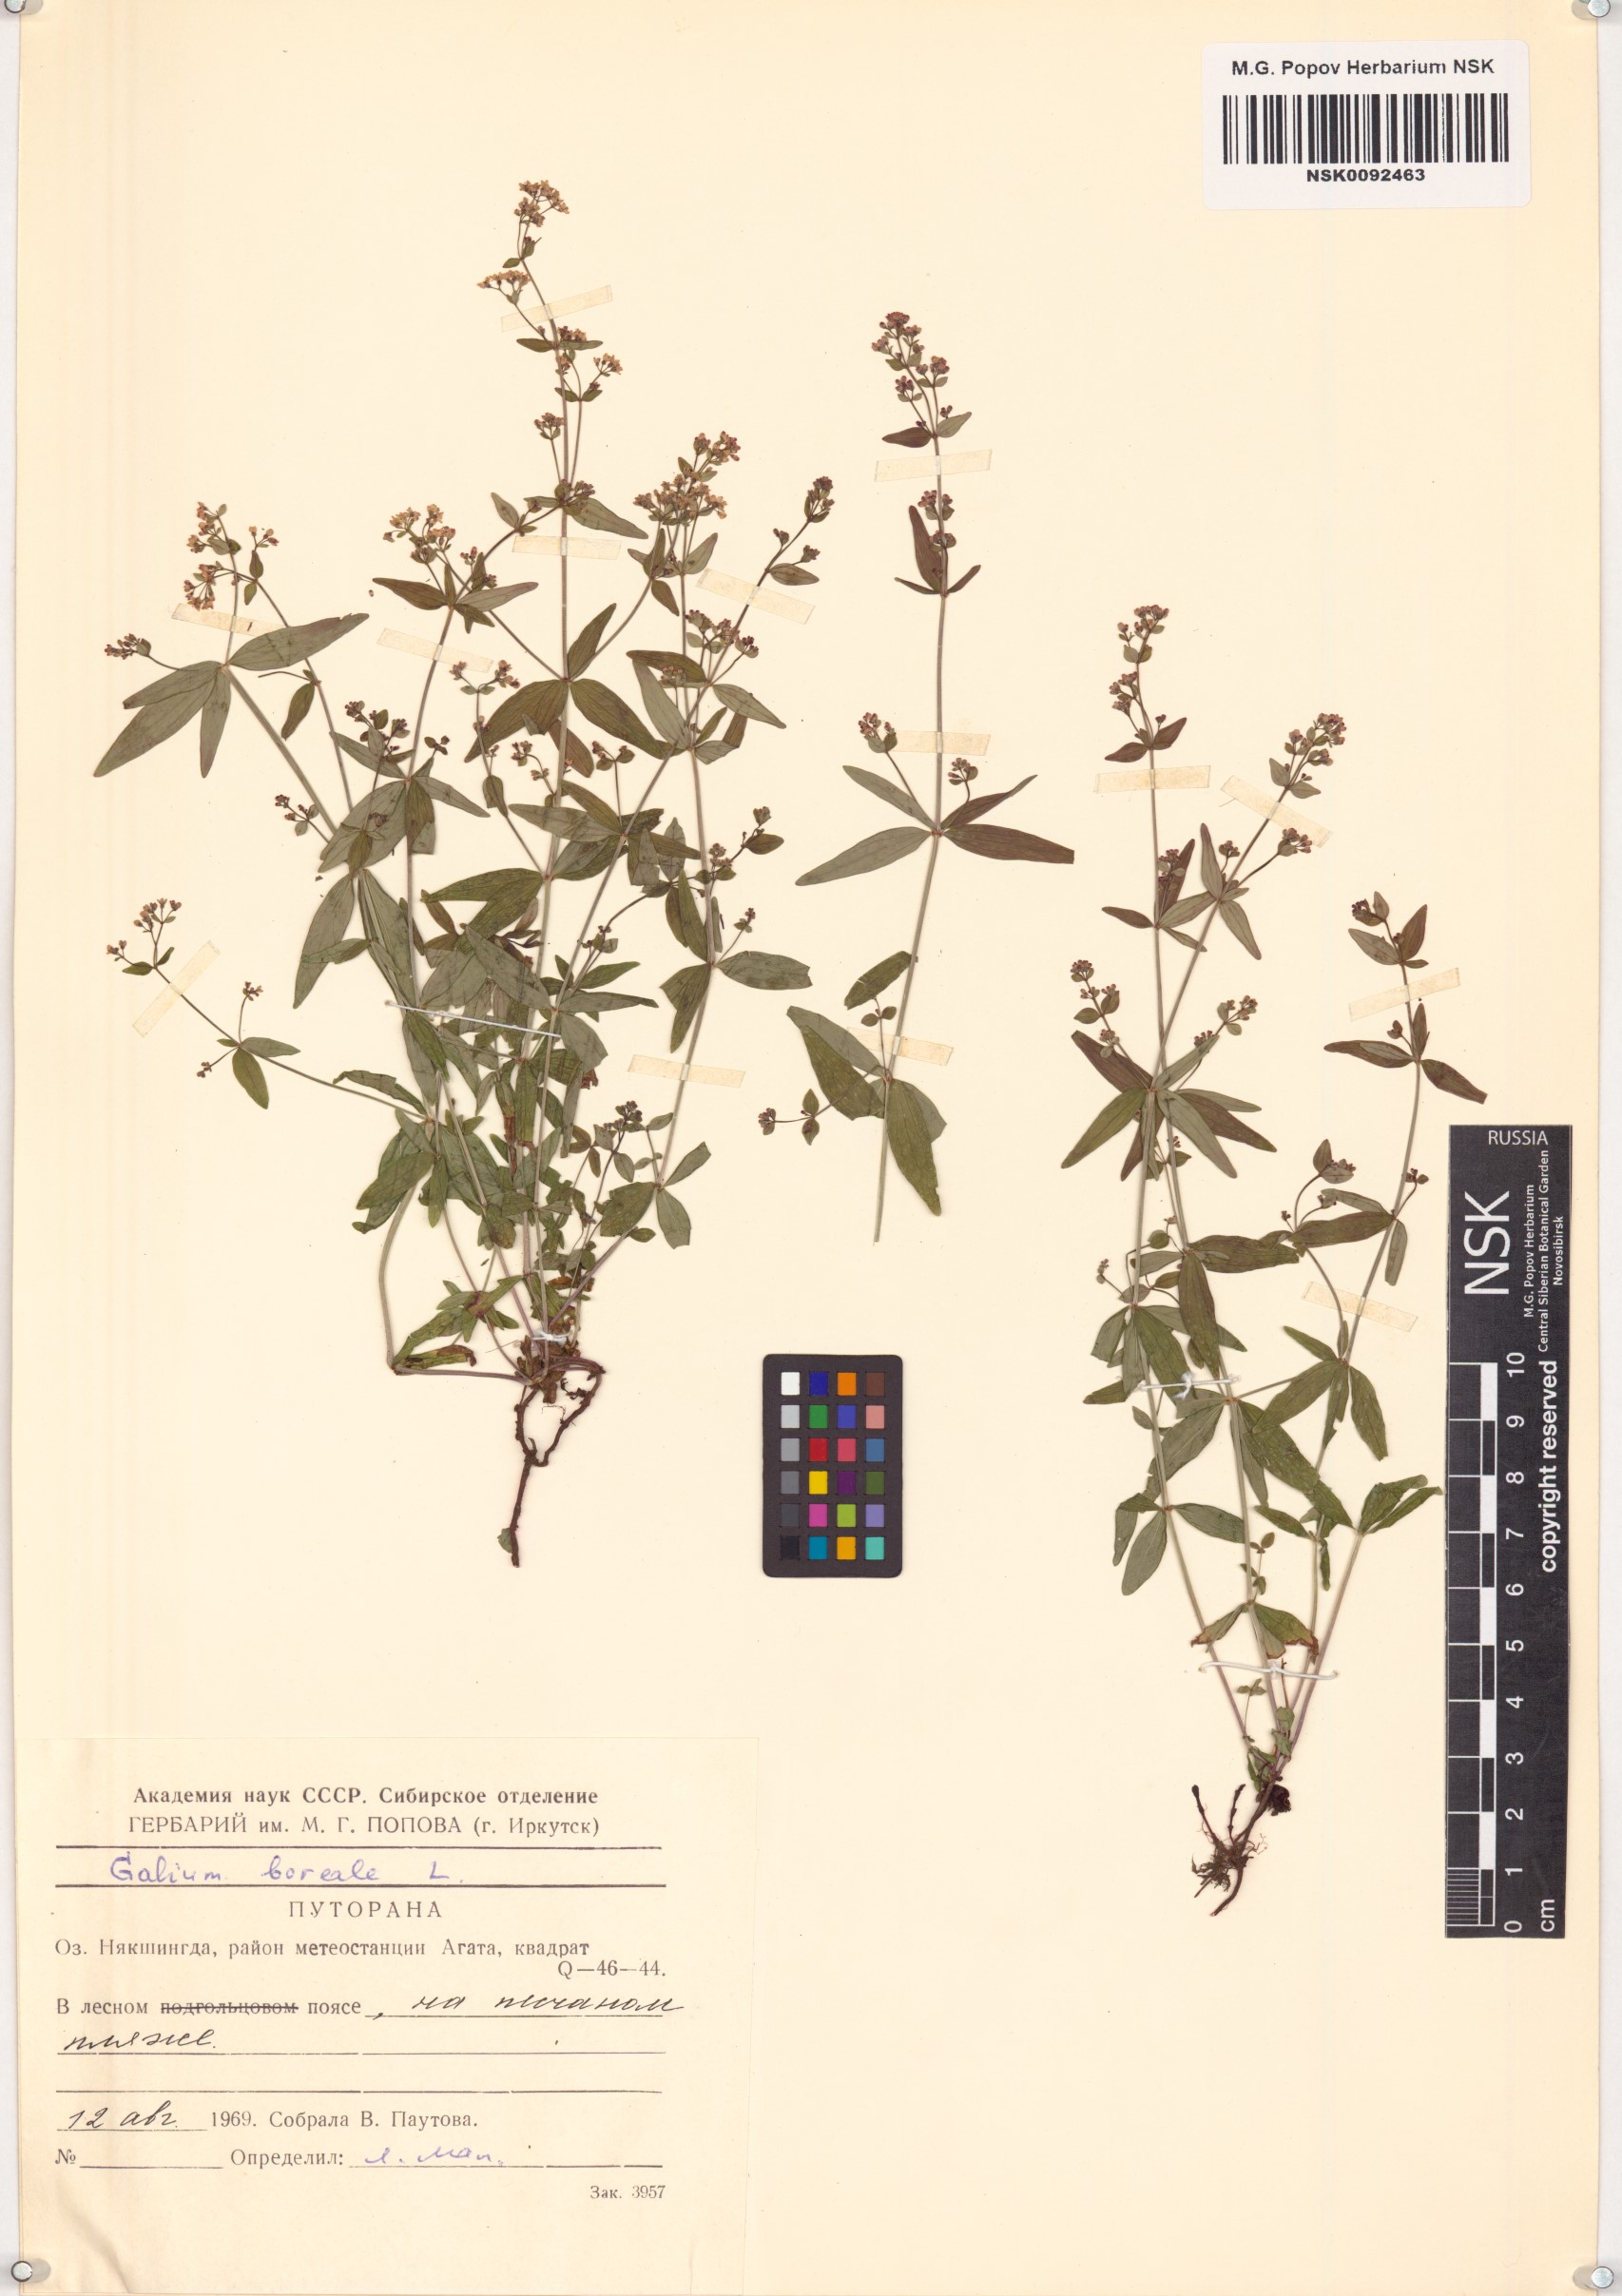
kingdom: Plantae
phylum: Tracheophyta
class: Magnoliopsida
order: Gentianales
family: Rubiaceae
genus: Galium
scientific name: Galium boreale
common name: Northern bedstraw
